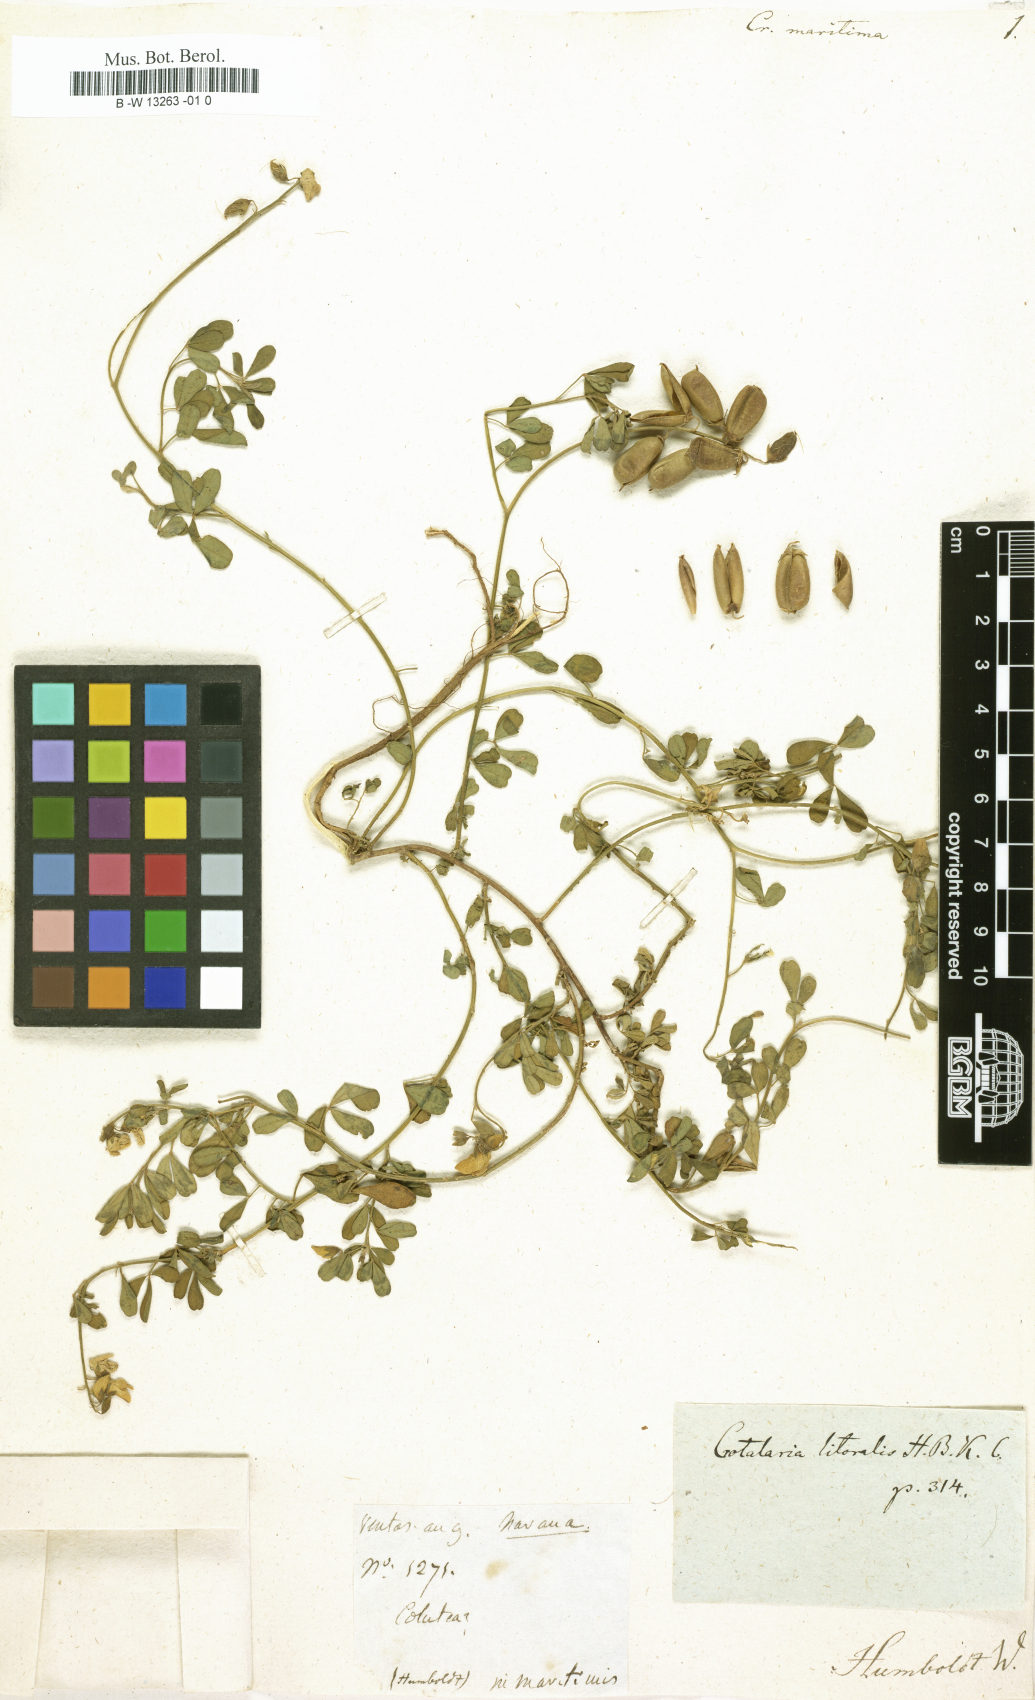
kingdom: Plantae
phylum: Tracheophyta
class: Magnoliopsida
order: Fabales
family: Fabaceae
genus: Crotalaria
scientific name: Crotalaria rotundifolia
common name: Prostrate rattlebox
